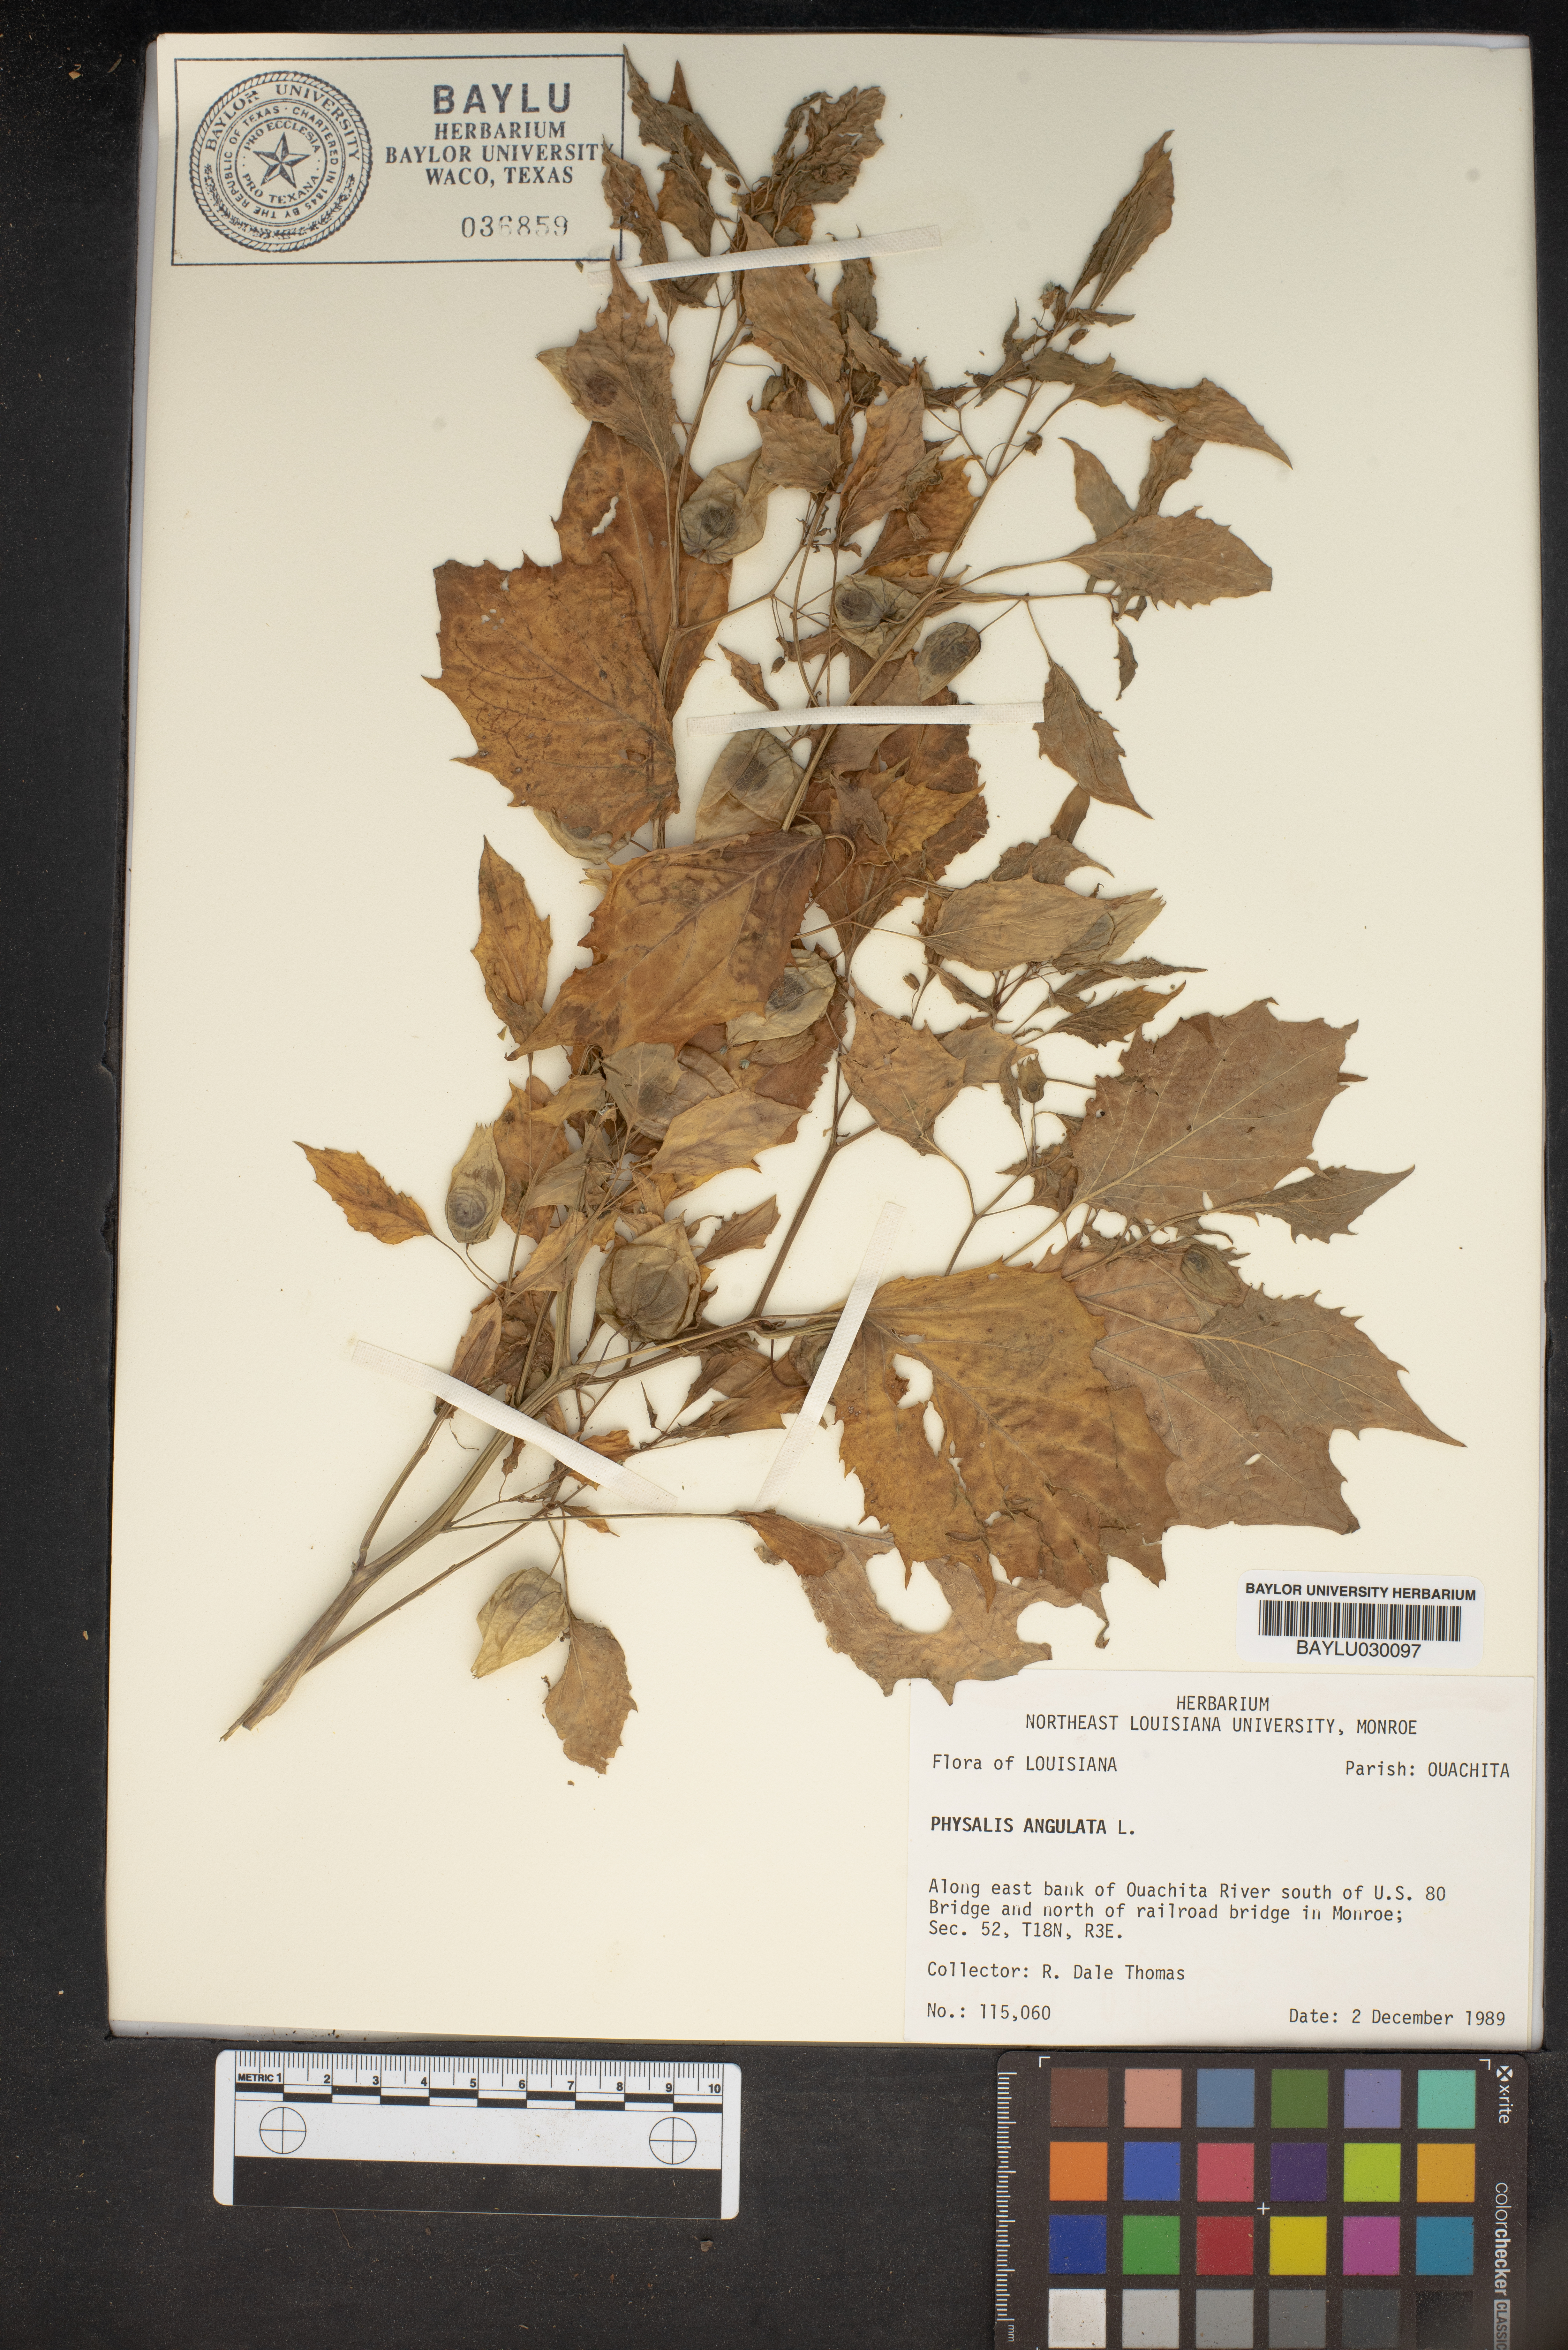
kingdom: Plantae
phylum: Tracheophyta
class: Magnoliopsida
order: Solanales
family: Solanaceae
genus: Physalis
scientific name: Physalis angulata
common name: Angular winter-cherry
